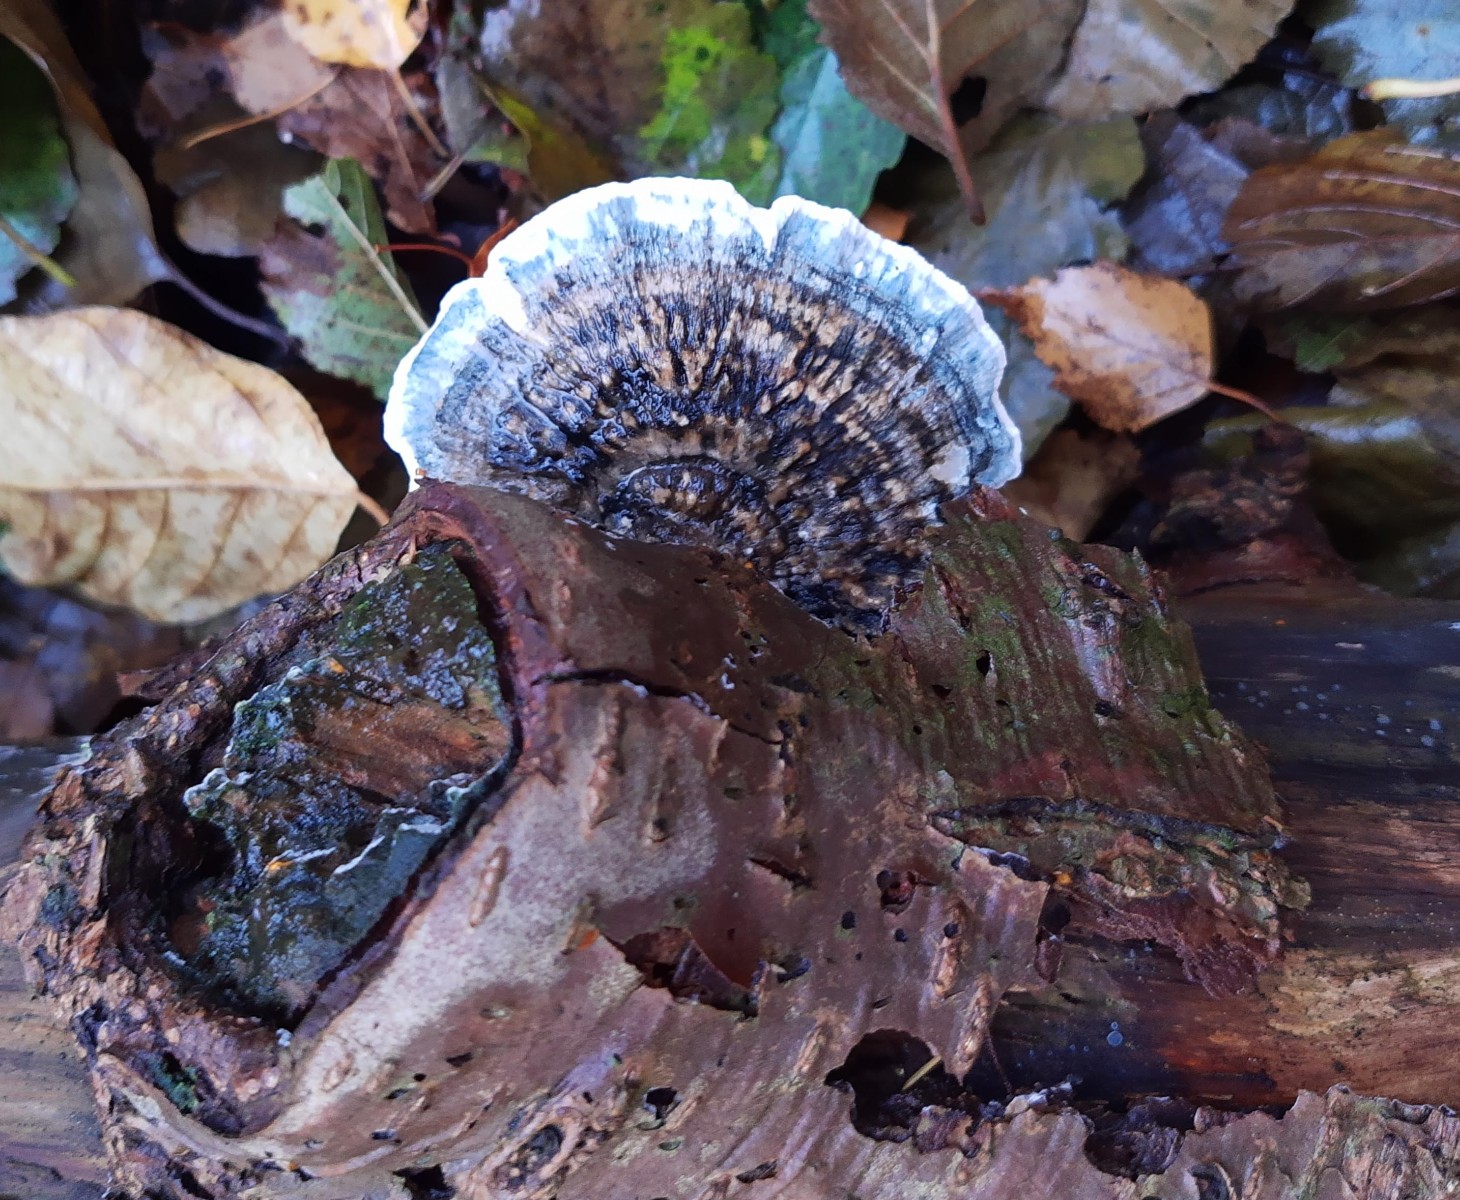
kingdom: Fungi
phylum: Basidiomycota
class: Agaricomycetes
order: Polyporales
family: Polyporaceae
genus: Cyanosporus
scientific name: Cyanosporus alni
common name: blegblå kødporesvamp
